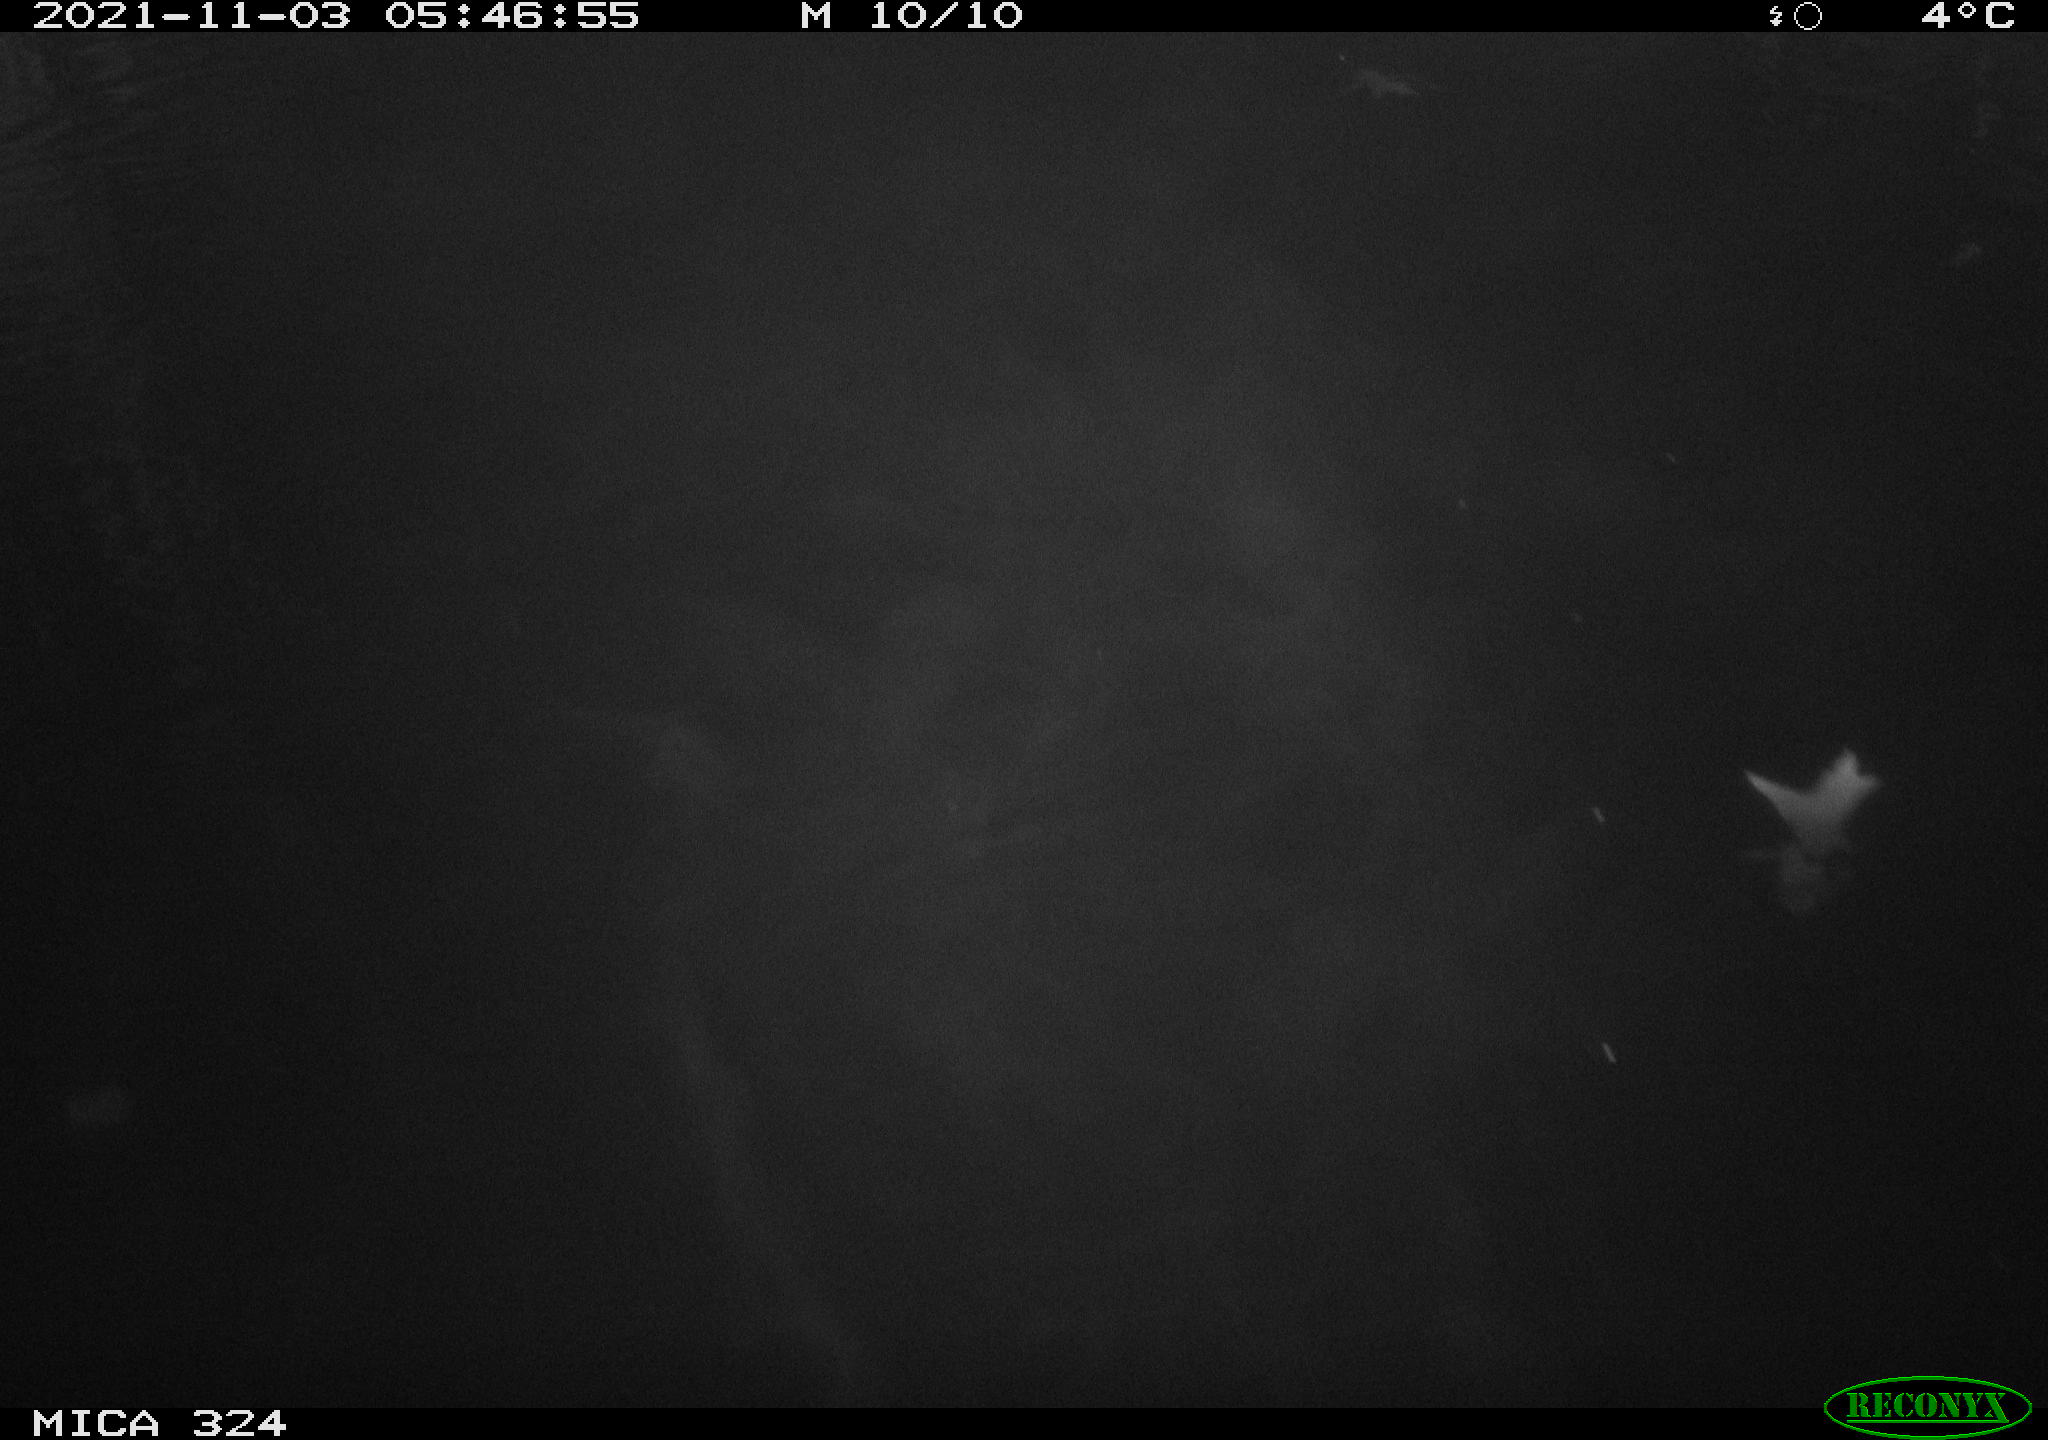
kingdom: Animalia
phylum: Chordata
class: Mammalia
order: Rodentia
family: Cricetidae
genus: Ondatra
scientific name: Ondatra zibethicus
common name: Muskrat
